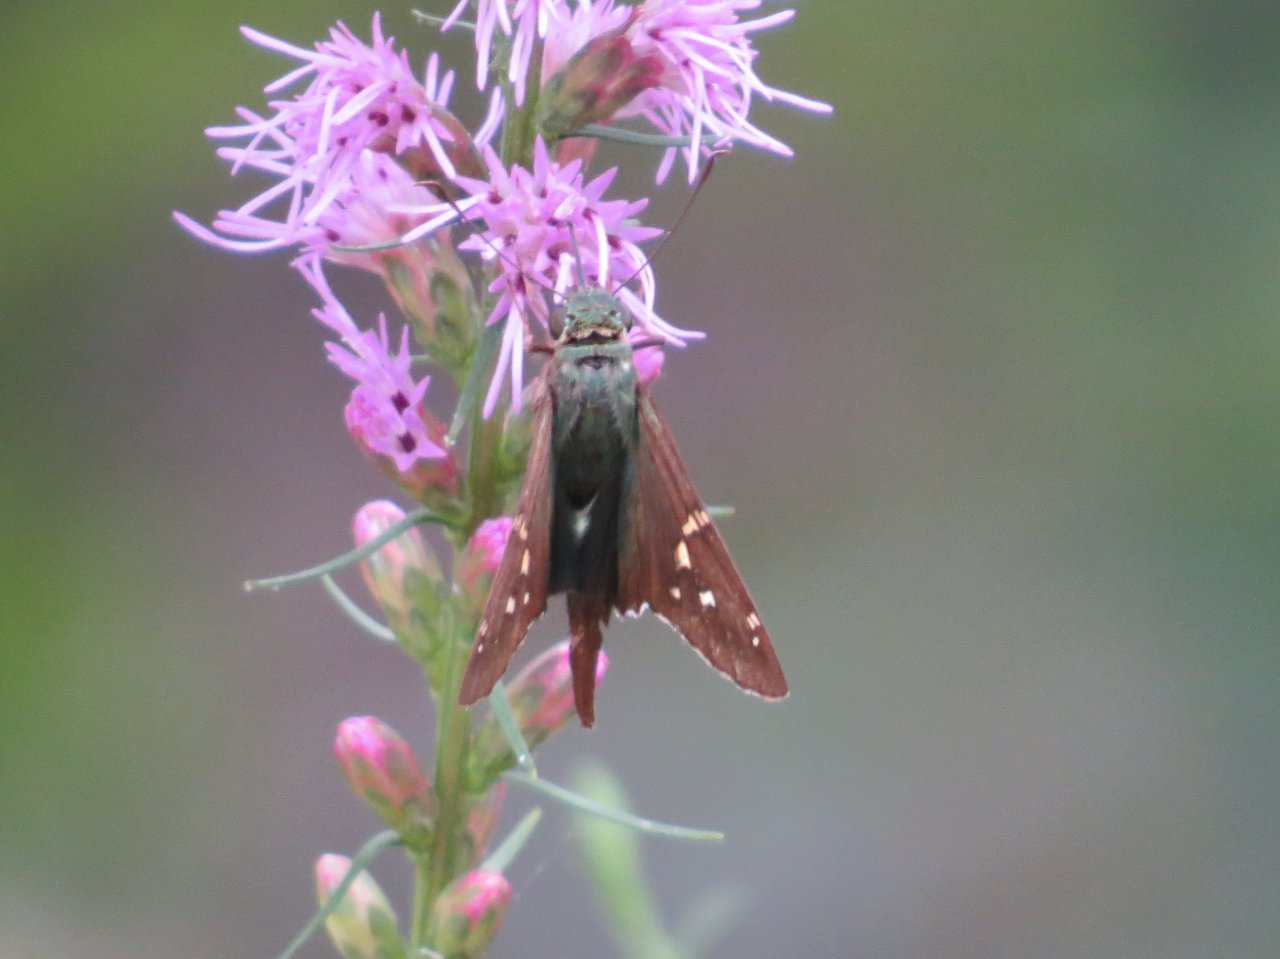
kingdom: Animalia
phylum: Arthropoda
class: Insecta
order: Lepidoptera
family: Hesperiidae
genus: Urbanus
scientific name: Urbanus proteus
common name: Long-tailed Skipper
